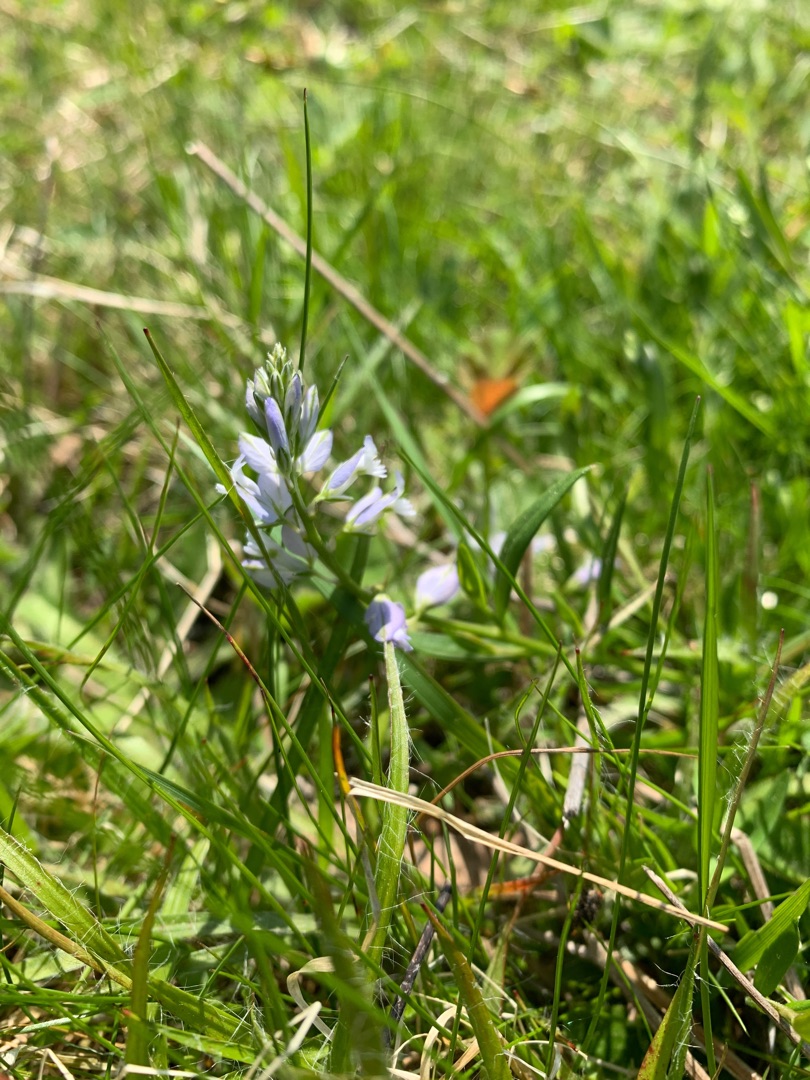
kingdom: Plantae
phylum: Tracheophyta
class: Magnoliopsida
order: Fabales
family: Polygalaceae
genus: Polygala
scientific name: Polygala vulgaris
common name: Almindelig mælkeurt
